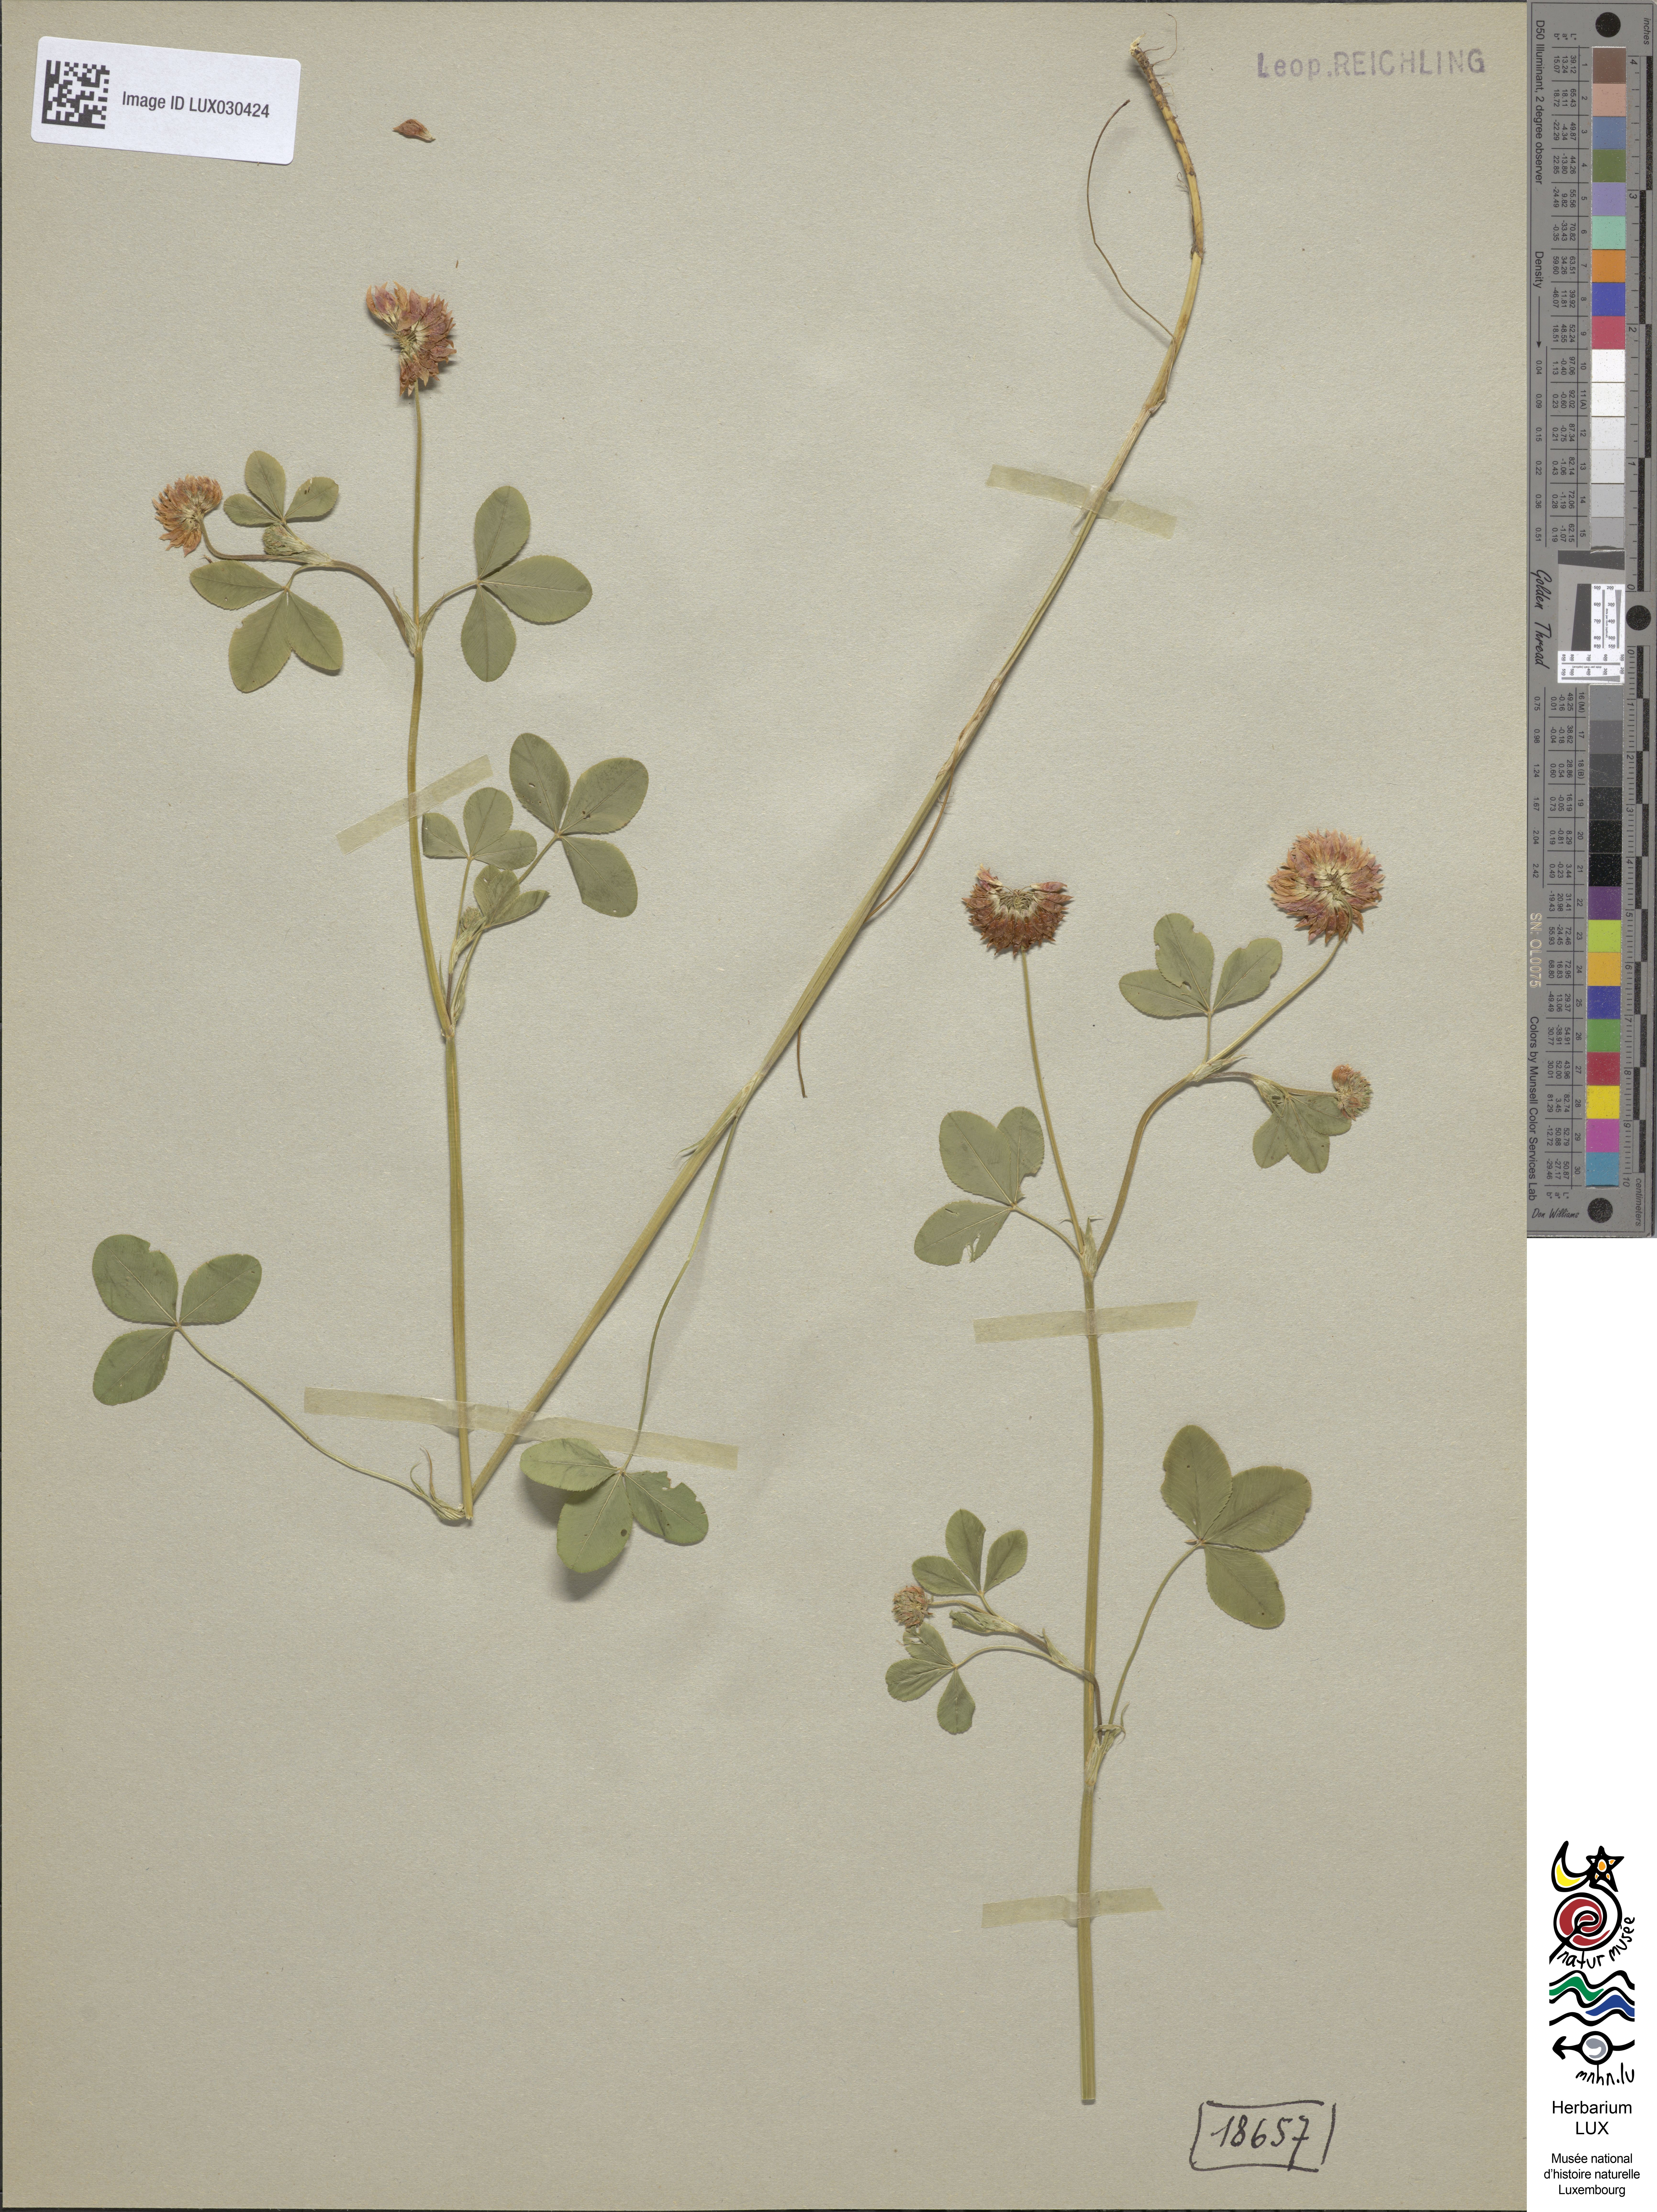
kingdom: Plantae
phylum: Tracheophyta
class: Magnoliopsida
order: Fabales
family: Fabaceae
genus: Trifolium
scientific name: Trifolium hybridum
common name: Alsike clover
